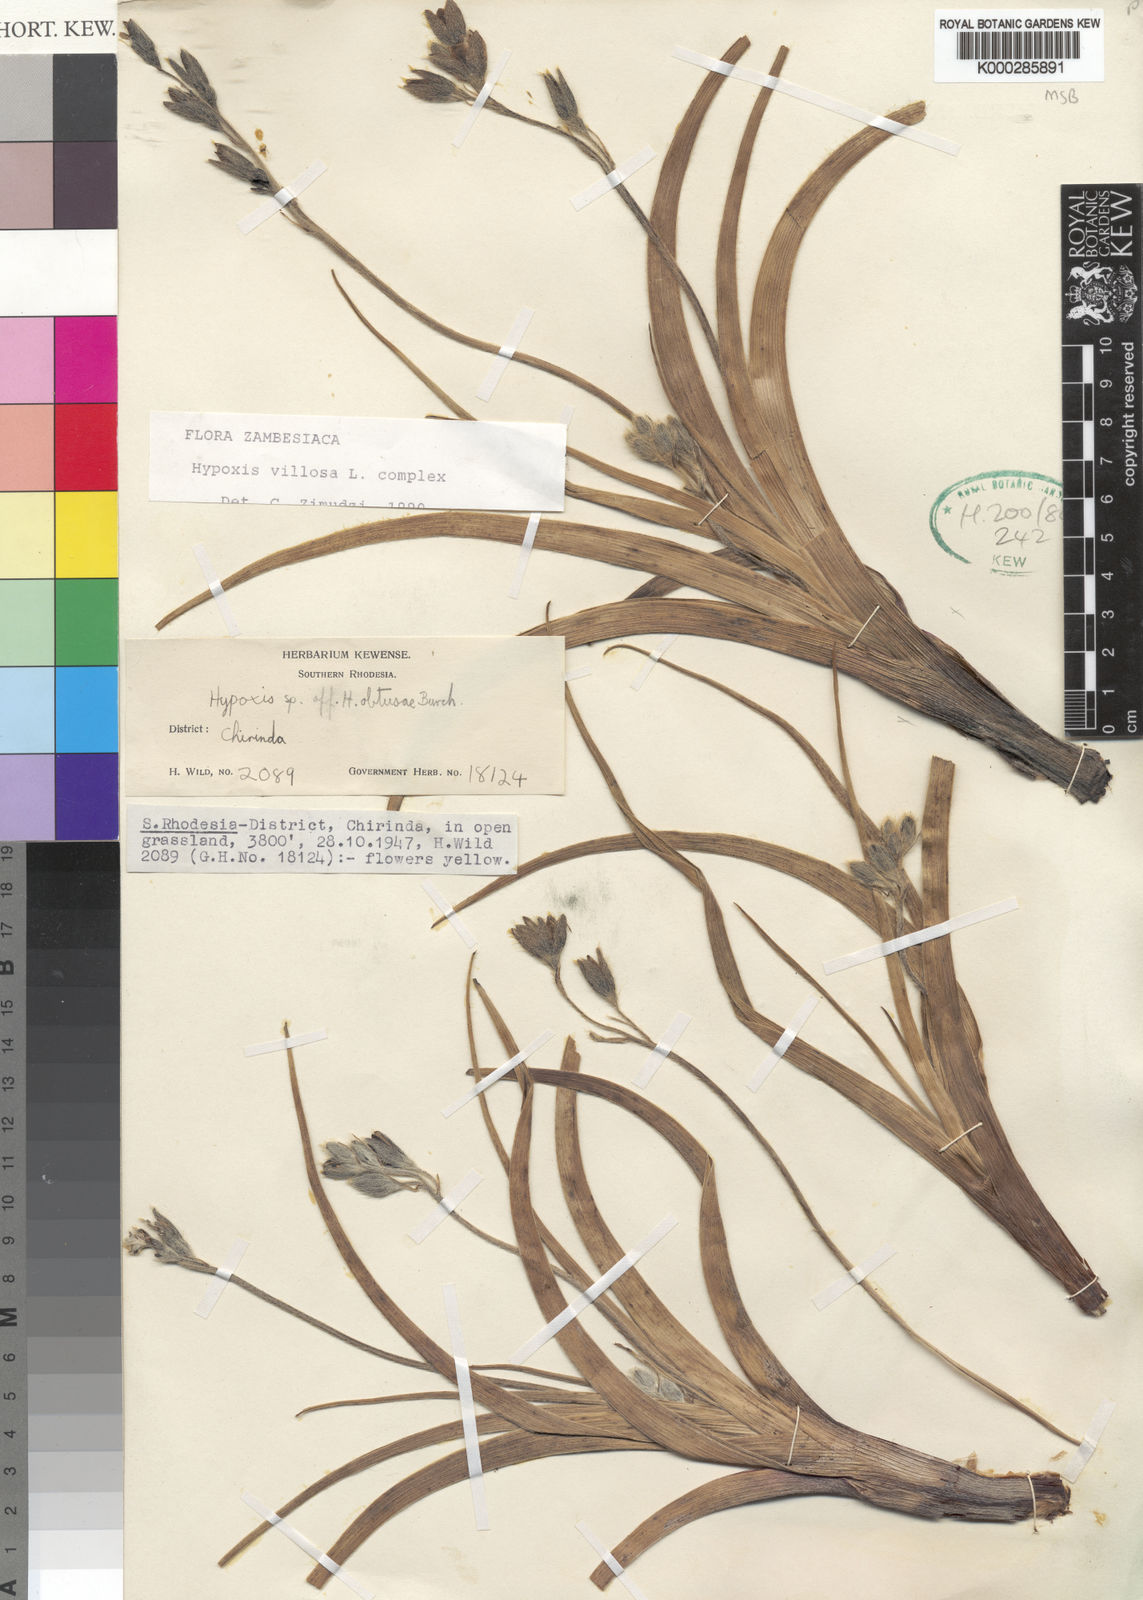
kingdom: Plantae
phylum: Tracheophyta
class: Liliopsida
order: Asparagales
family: Hypoxidaceae
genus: Hypoxis
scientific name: Hypoxis
